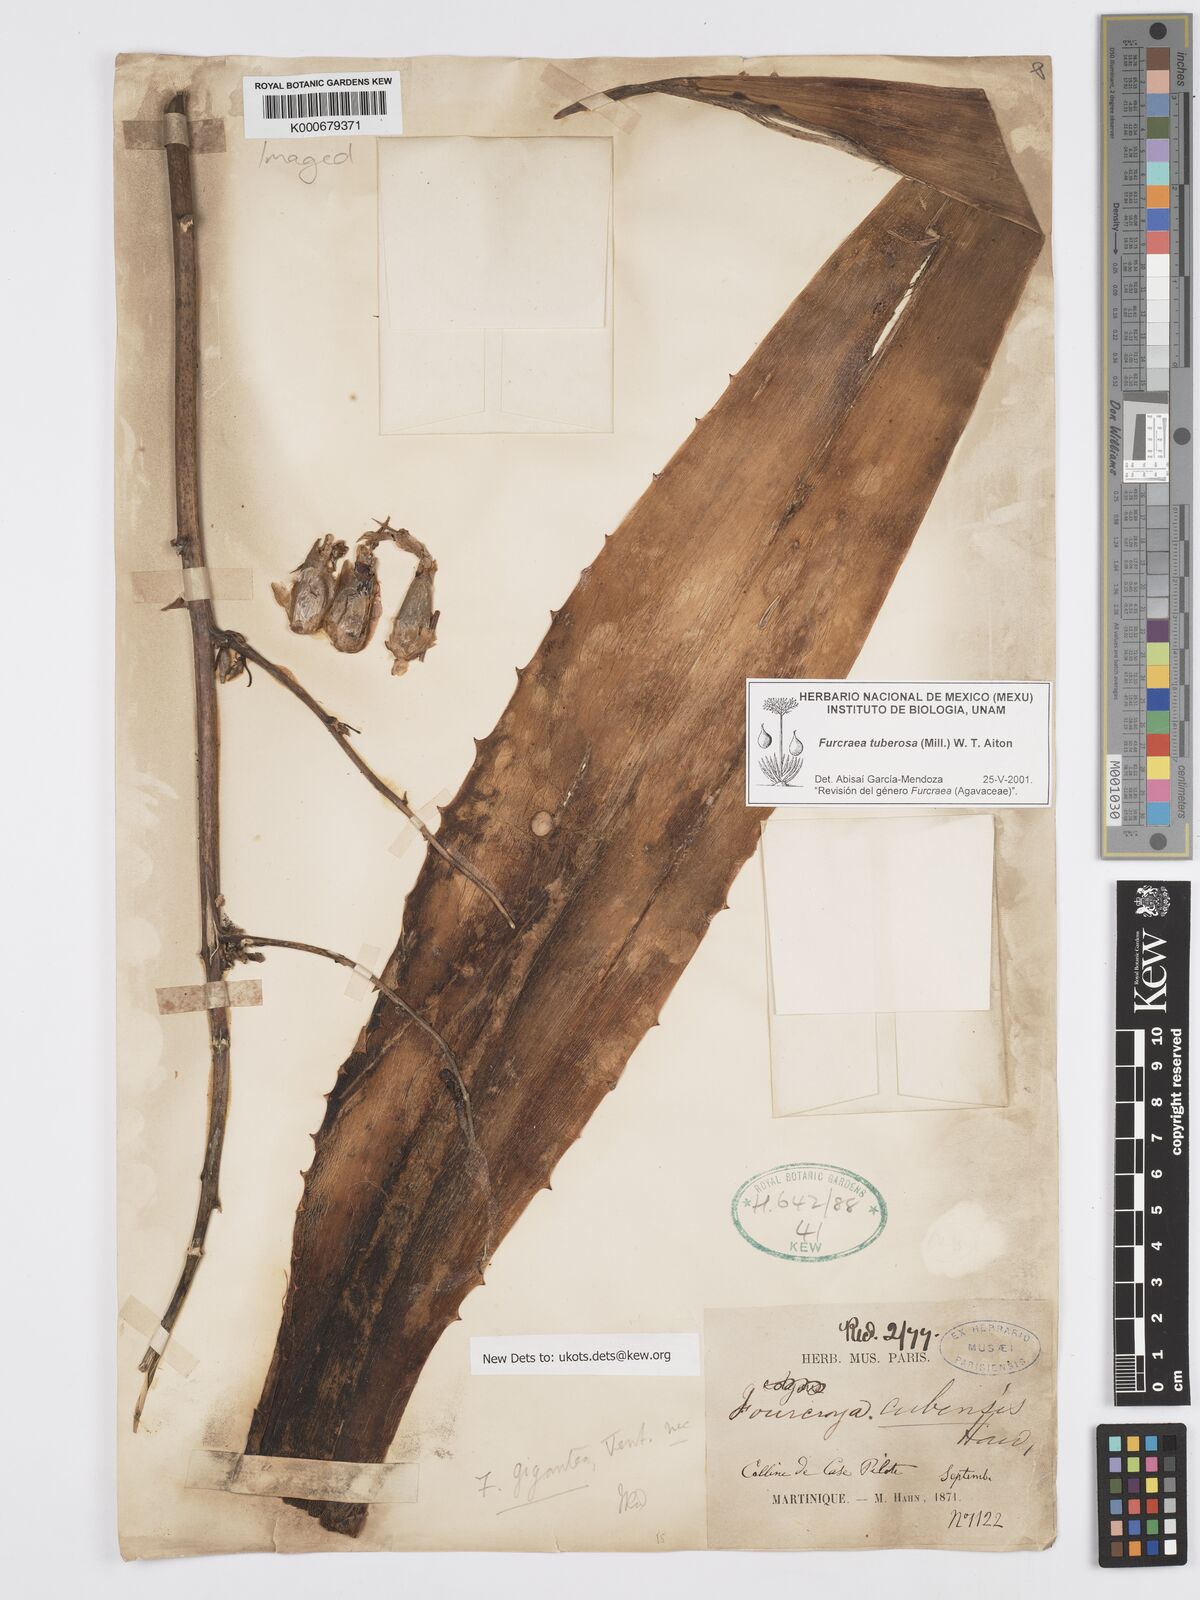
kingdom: Plantae
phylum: Tracheophyta
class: Liliopsida
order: Asparagales
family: Asparagaceae
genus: Furcraea
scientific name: Furcraea tuberosa
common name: Karata
